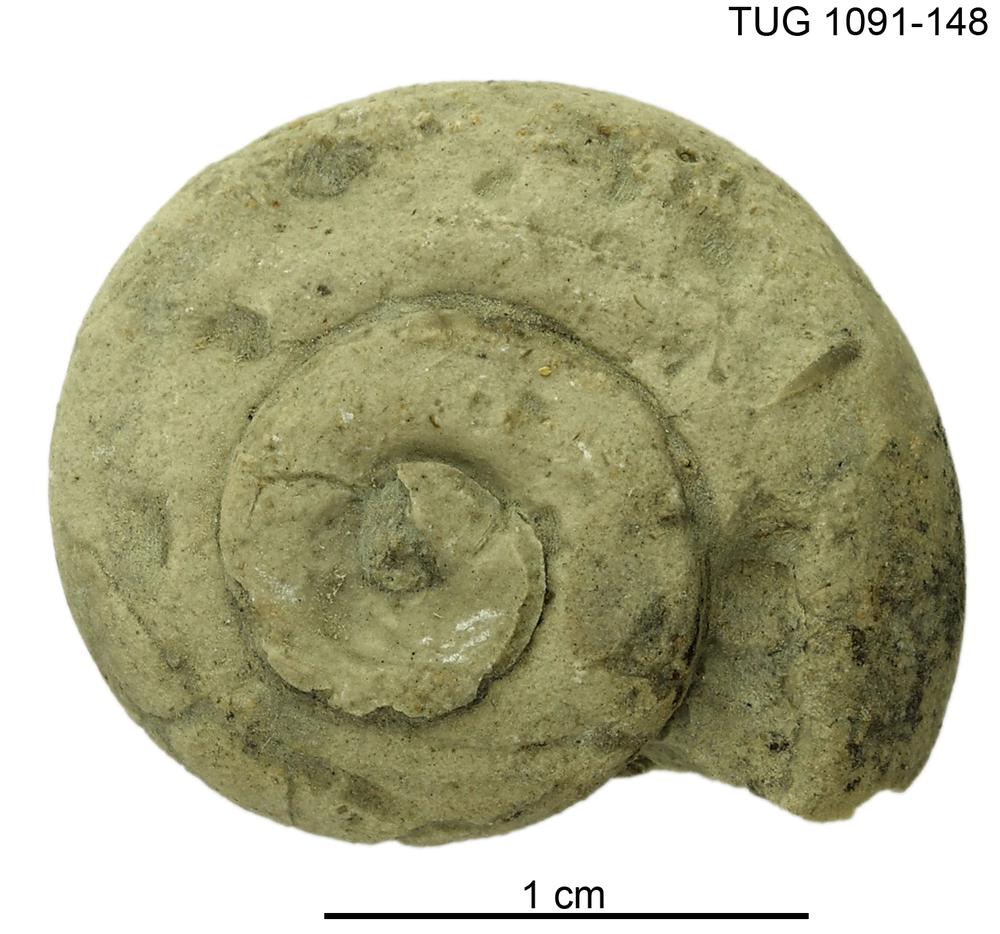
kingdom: Animalia
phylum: Mollusca
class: Gastropoda
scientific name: Gastropoda
